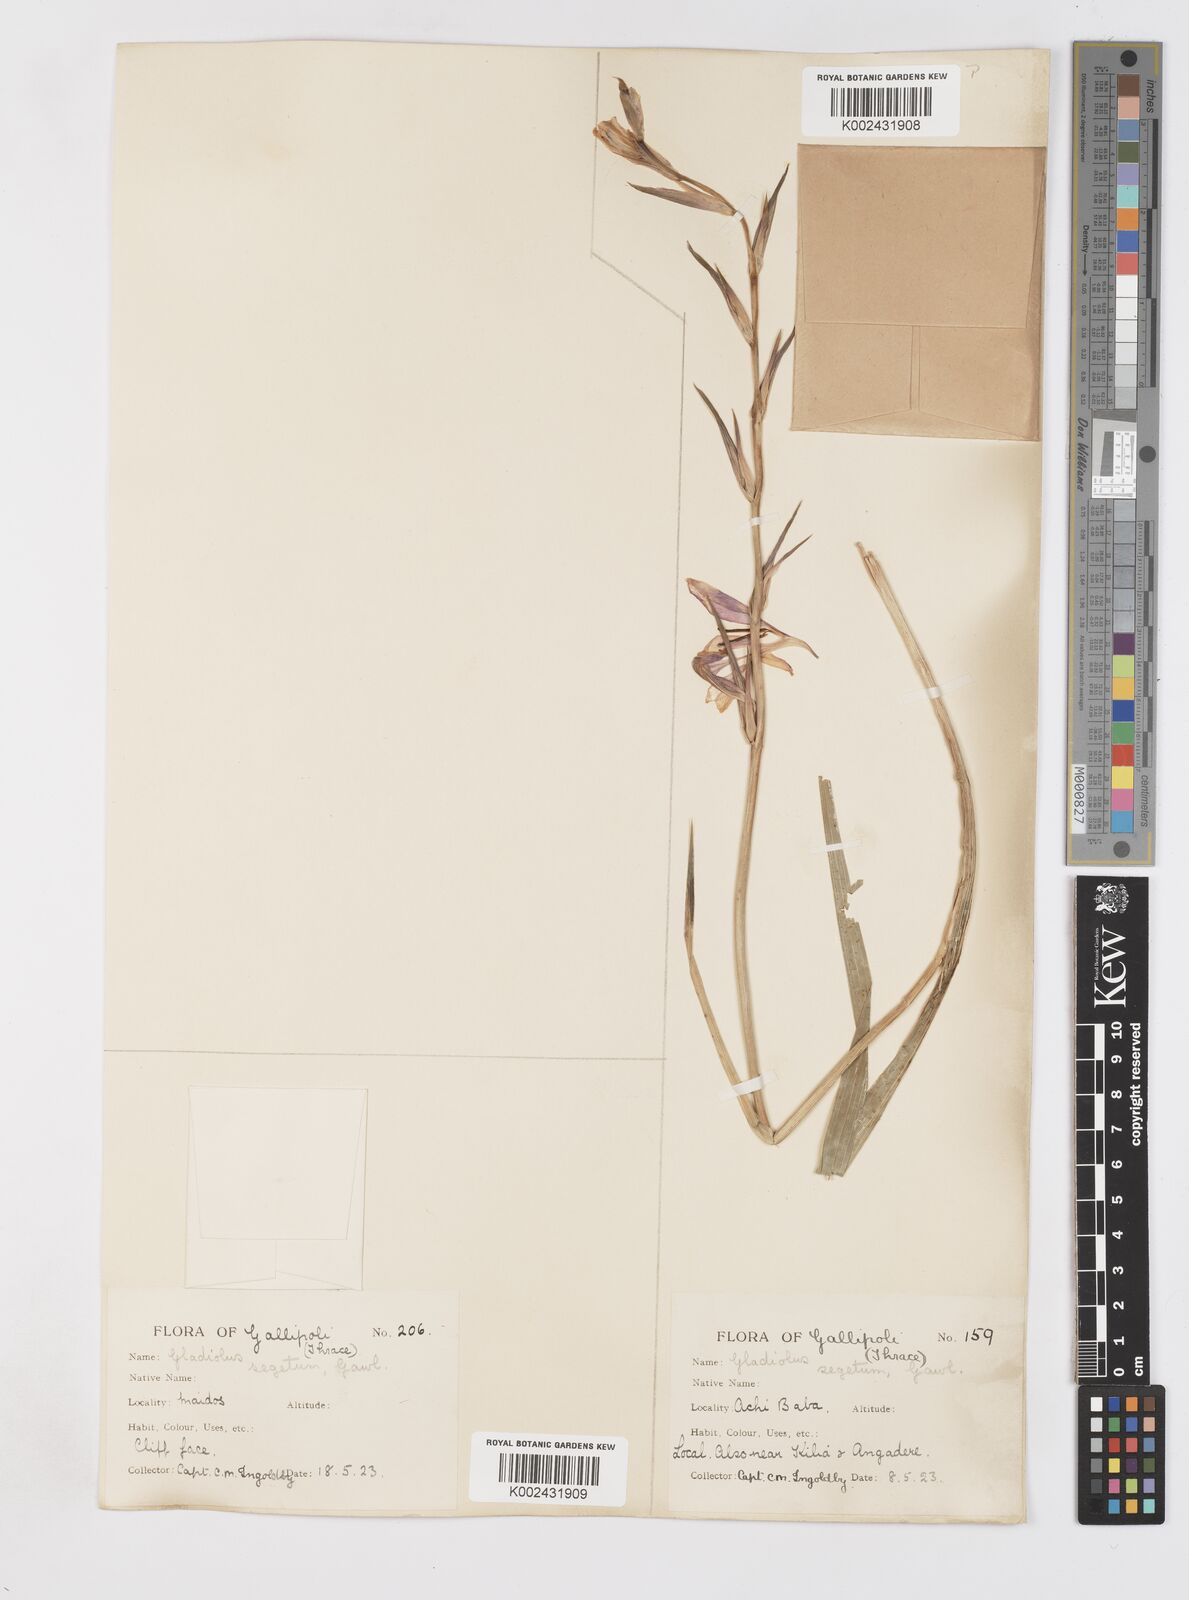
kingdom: Plantae
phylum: Tracheophyta
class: Liliopsida
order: Asparagales
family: Iridaceae
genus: Gladiolus
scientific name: Gladiolus italicus
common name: Field gladiolus
